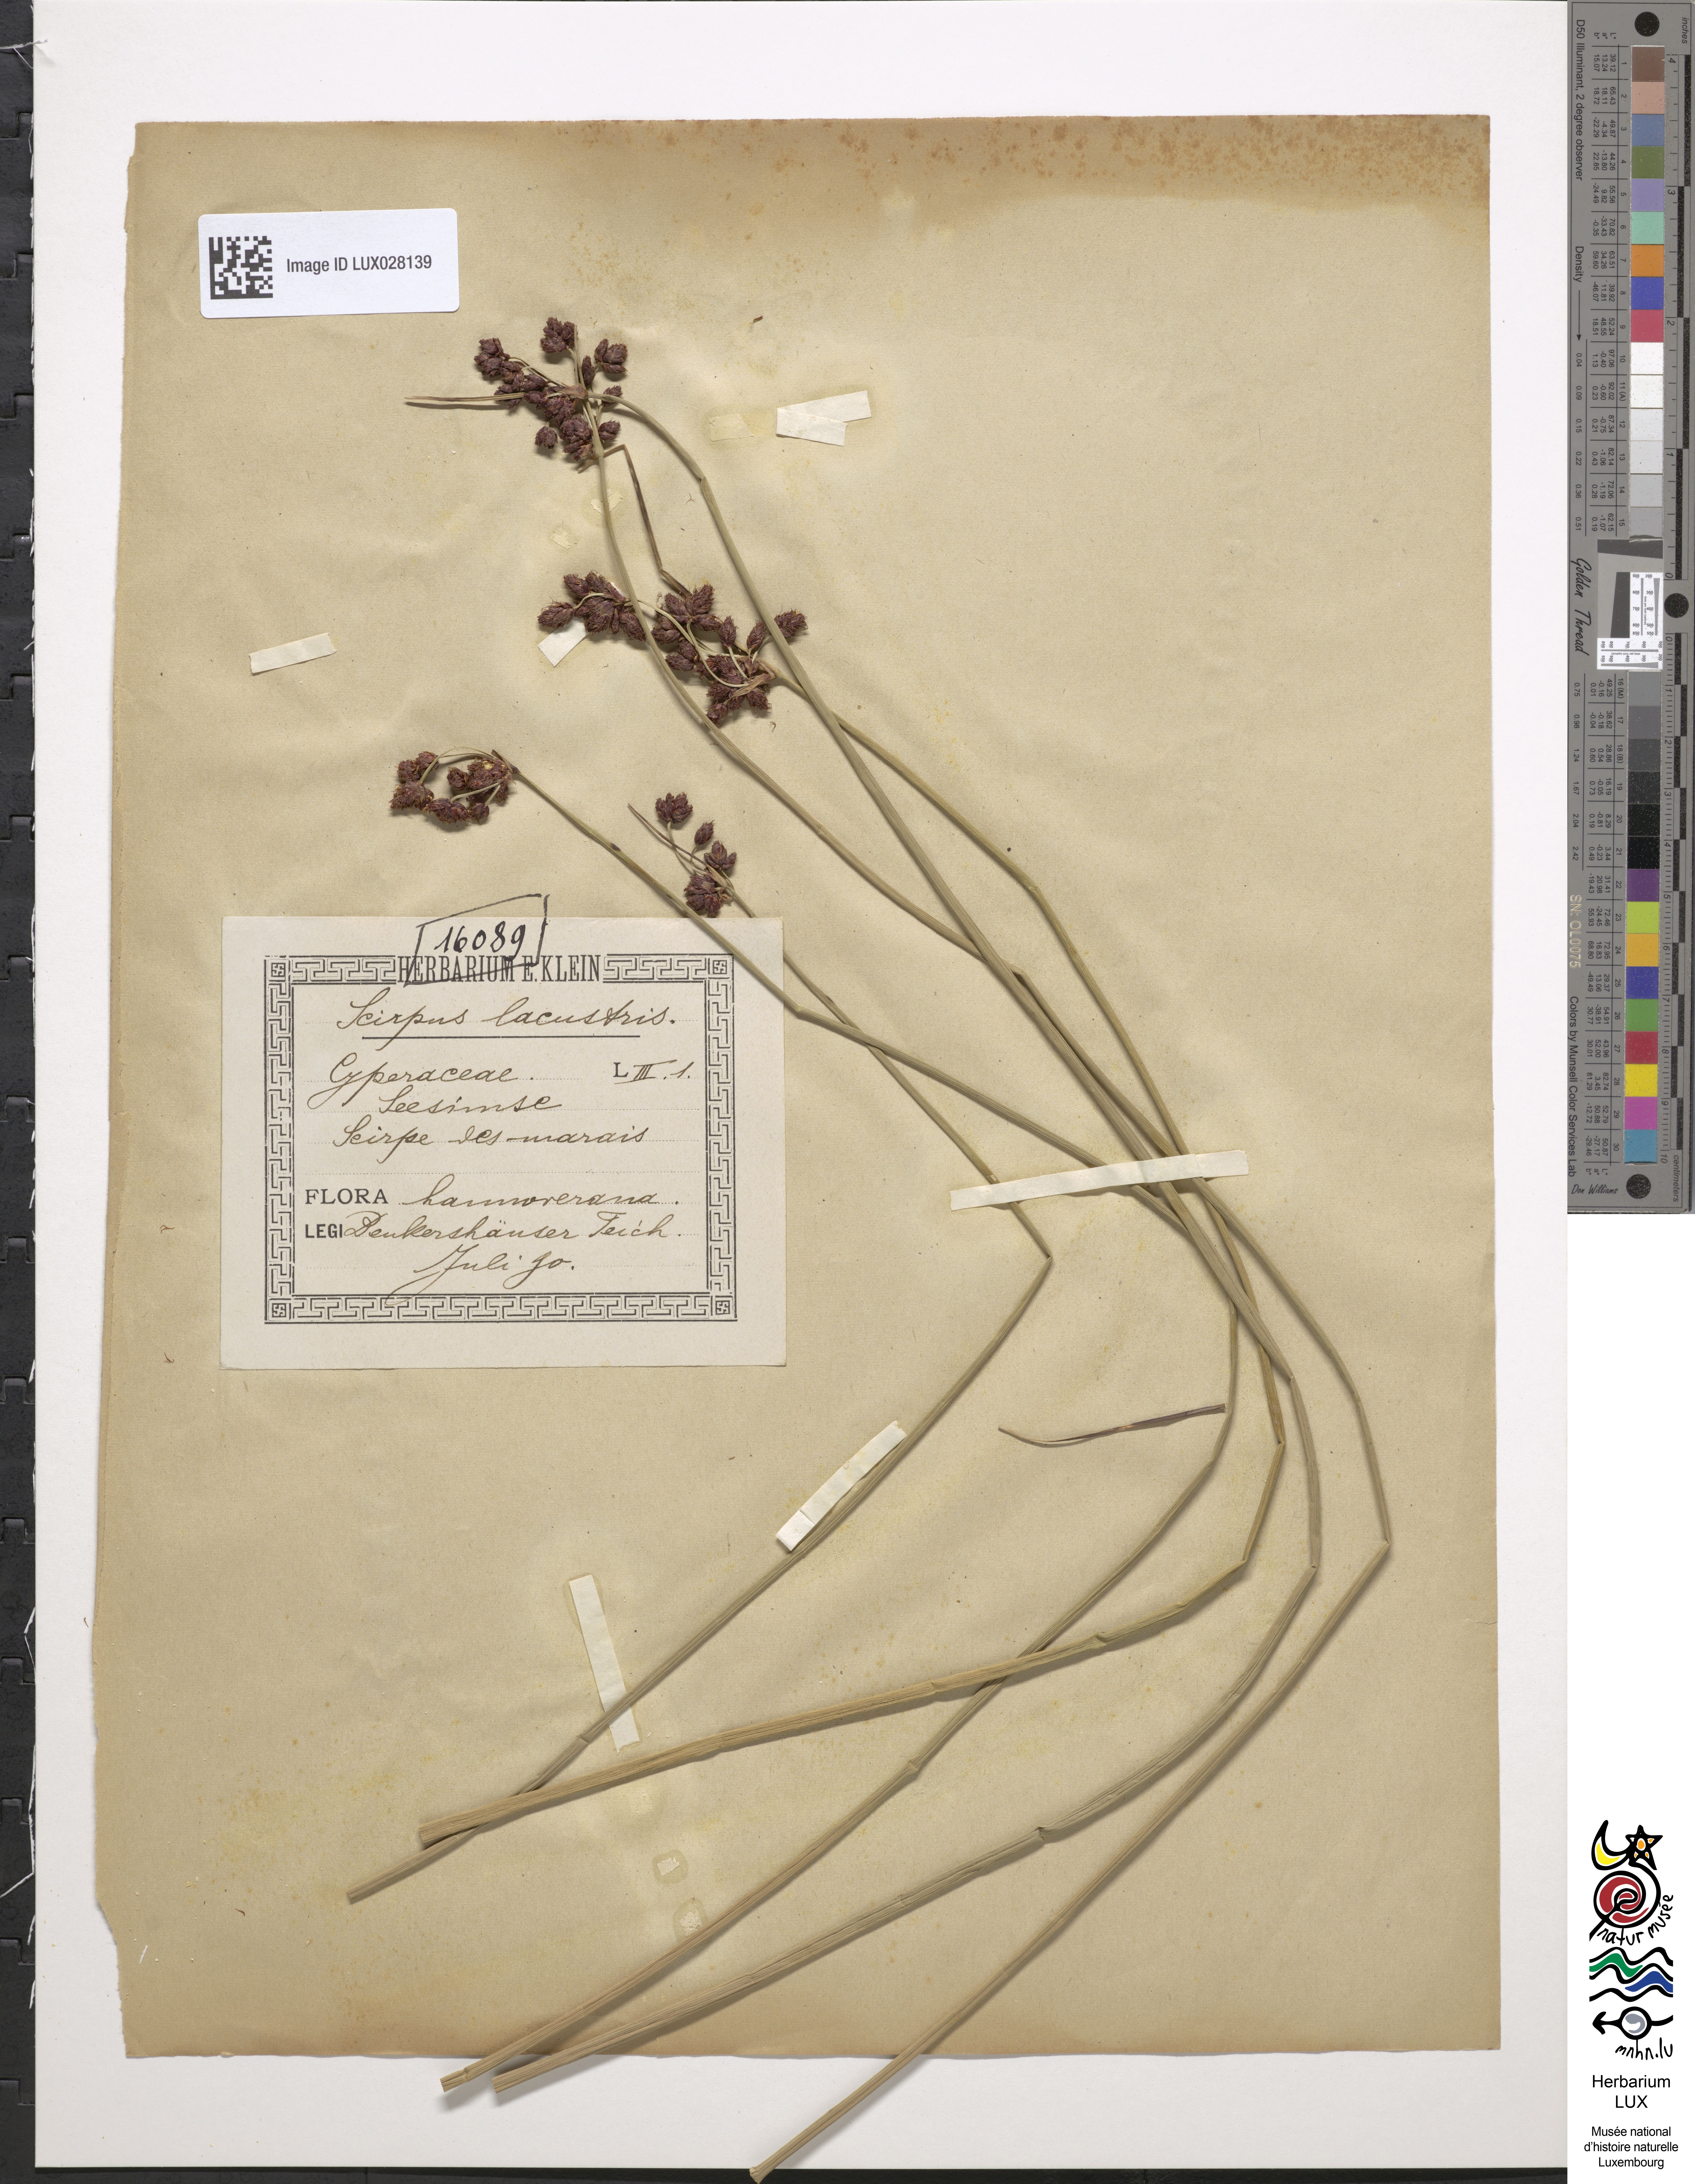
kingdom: Plantae
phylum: Tracheophyta
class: Liliopsida
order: Poales
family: Cyperaceae
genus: Schoenoplectus
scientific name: Schoenoplectus lacustris
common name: Common club-rush
